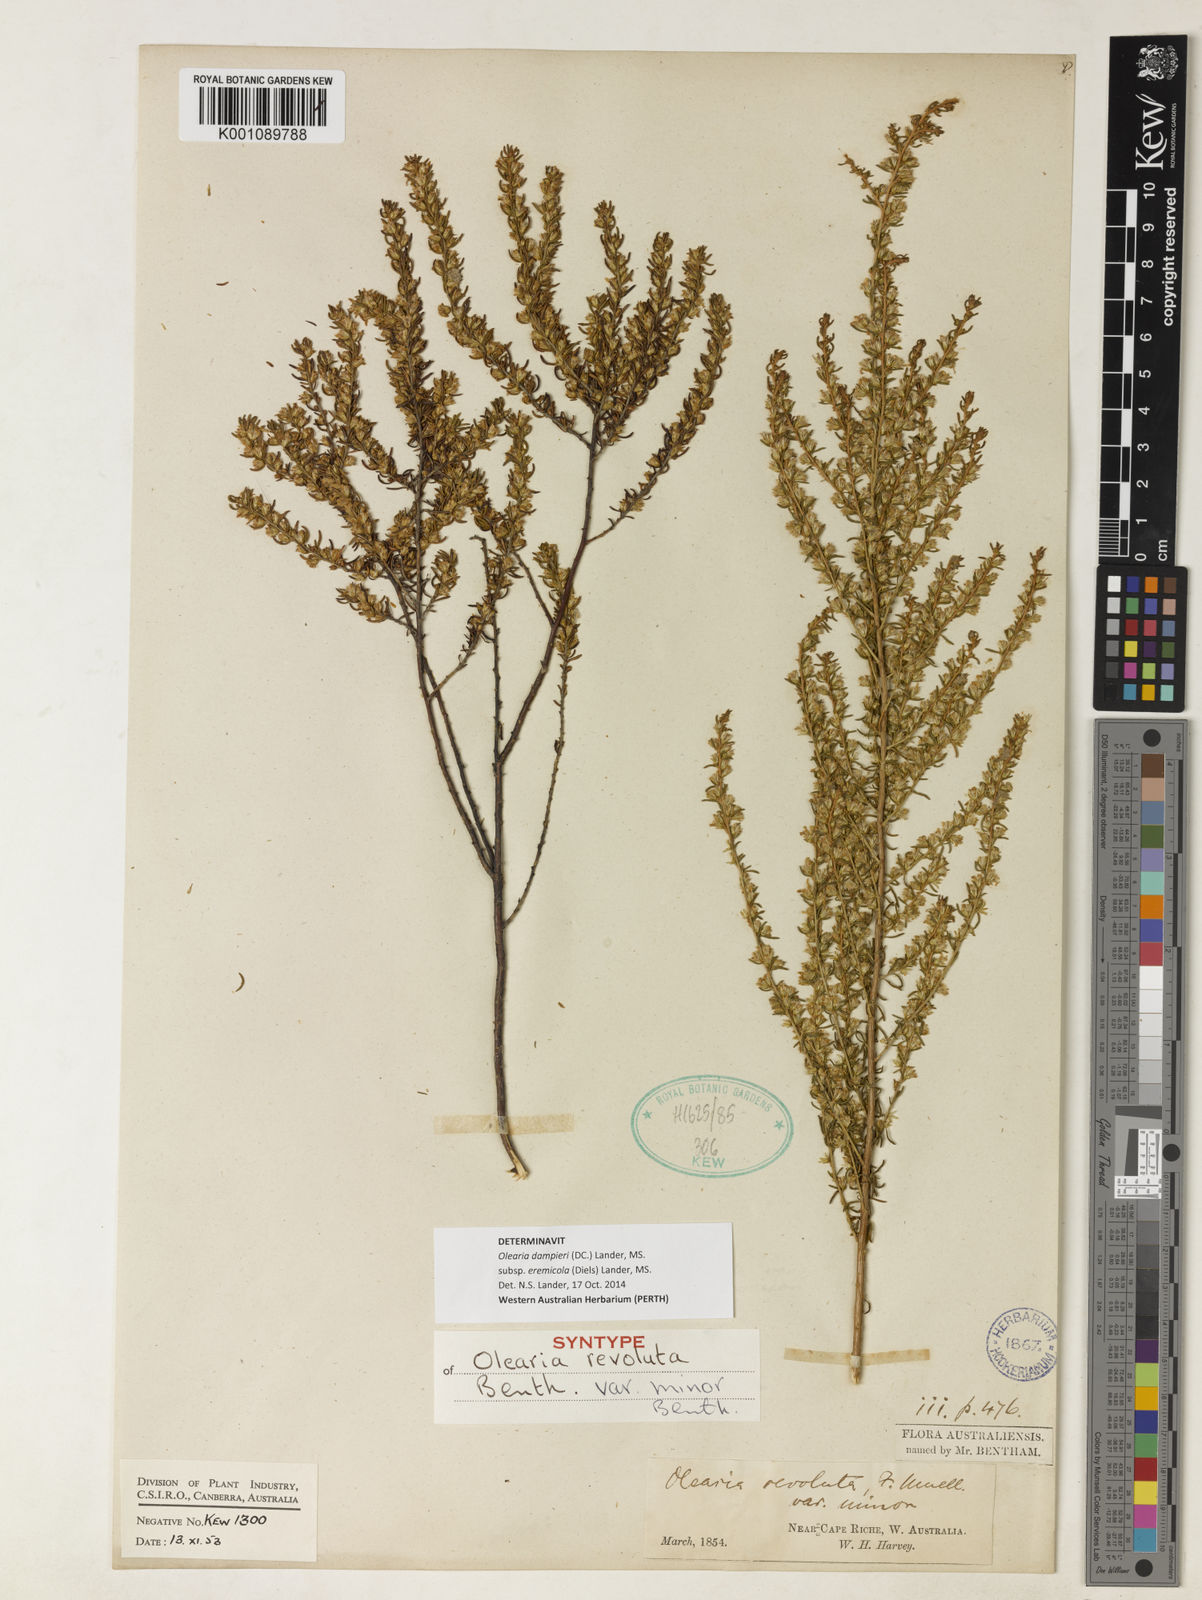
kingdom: Plantae
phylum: Tracheophyta
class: Magnoliopsida
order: Asterales
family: Asteraceae
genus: Olearia
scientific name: Olearia
